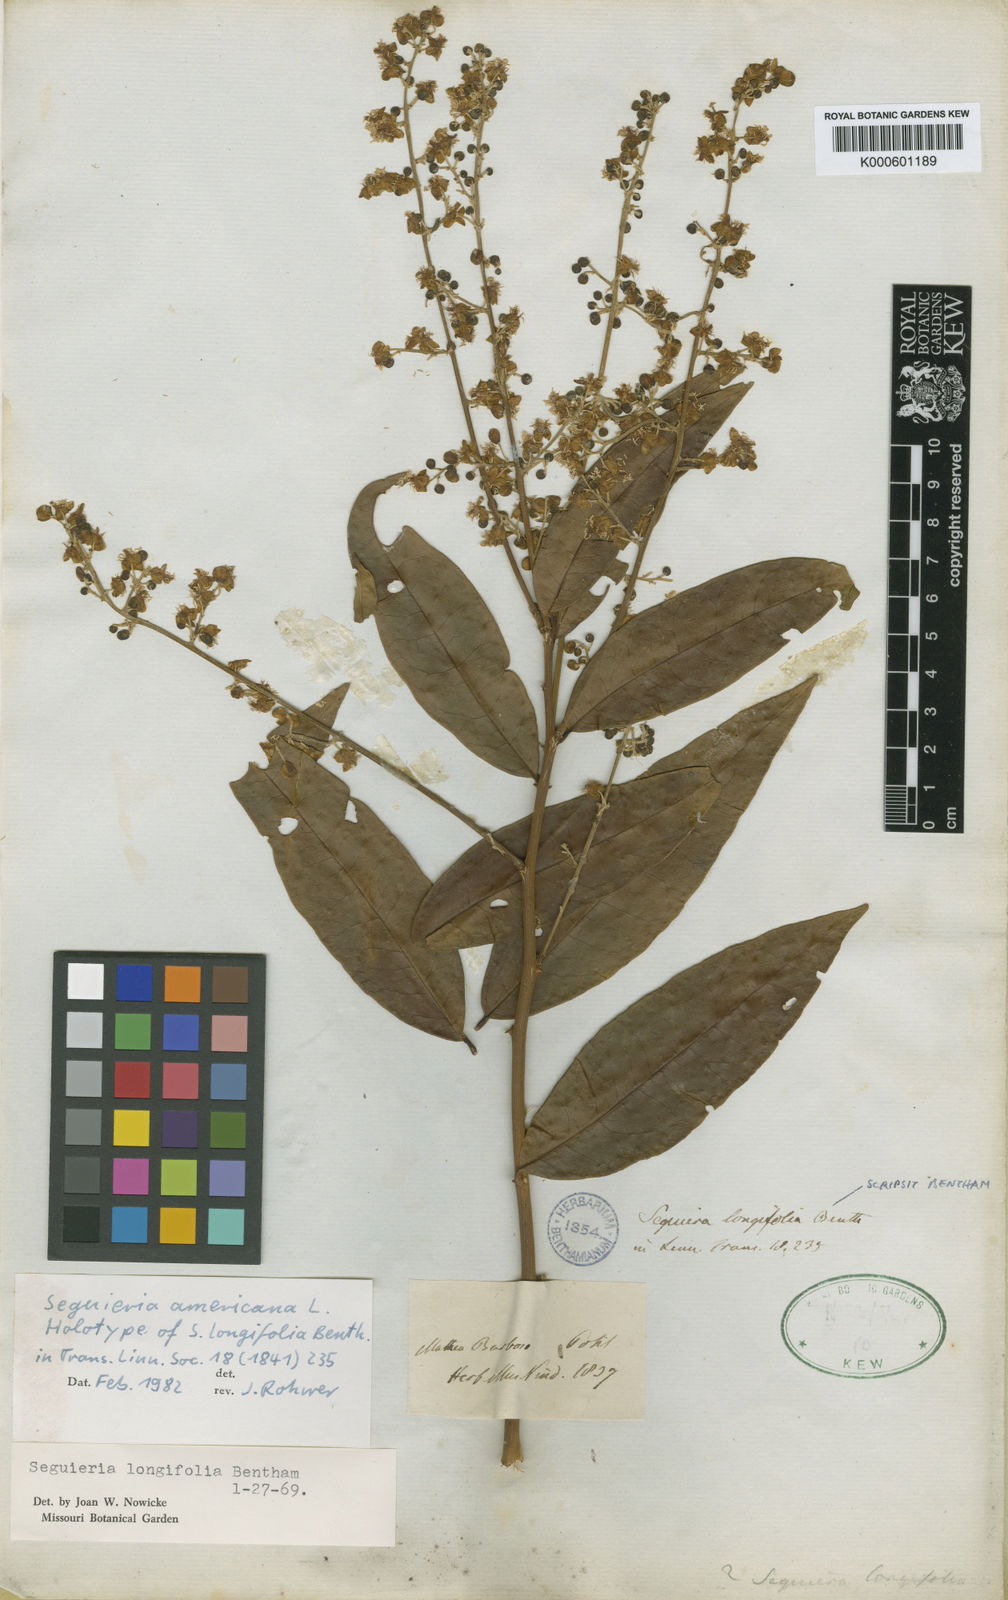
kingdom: Plantae
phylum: Tracheophyta
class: Magnoliopsida
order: Caryophyllales
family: Phytolaccaceae
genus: Seguieria
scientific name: Seguieria americana
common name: American seguieria
